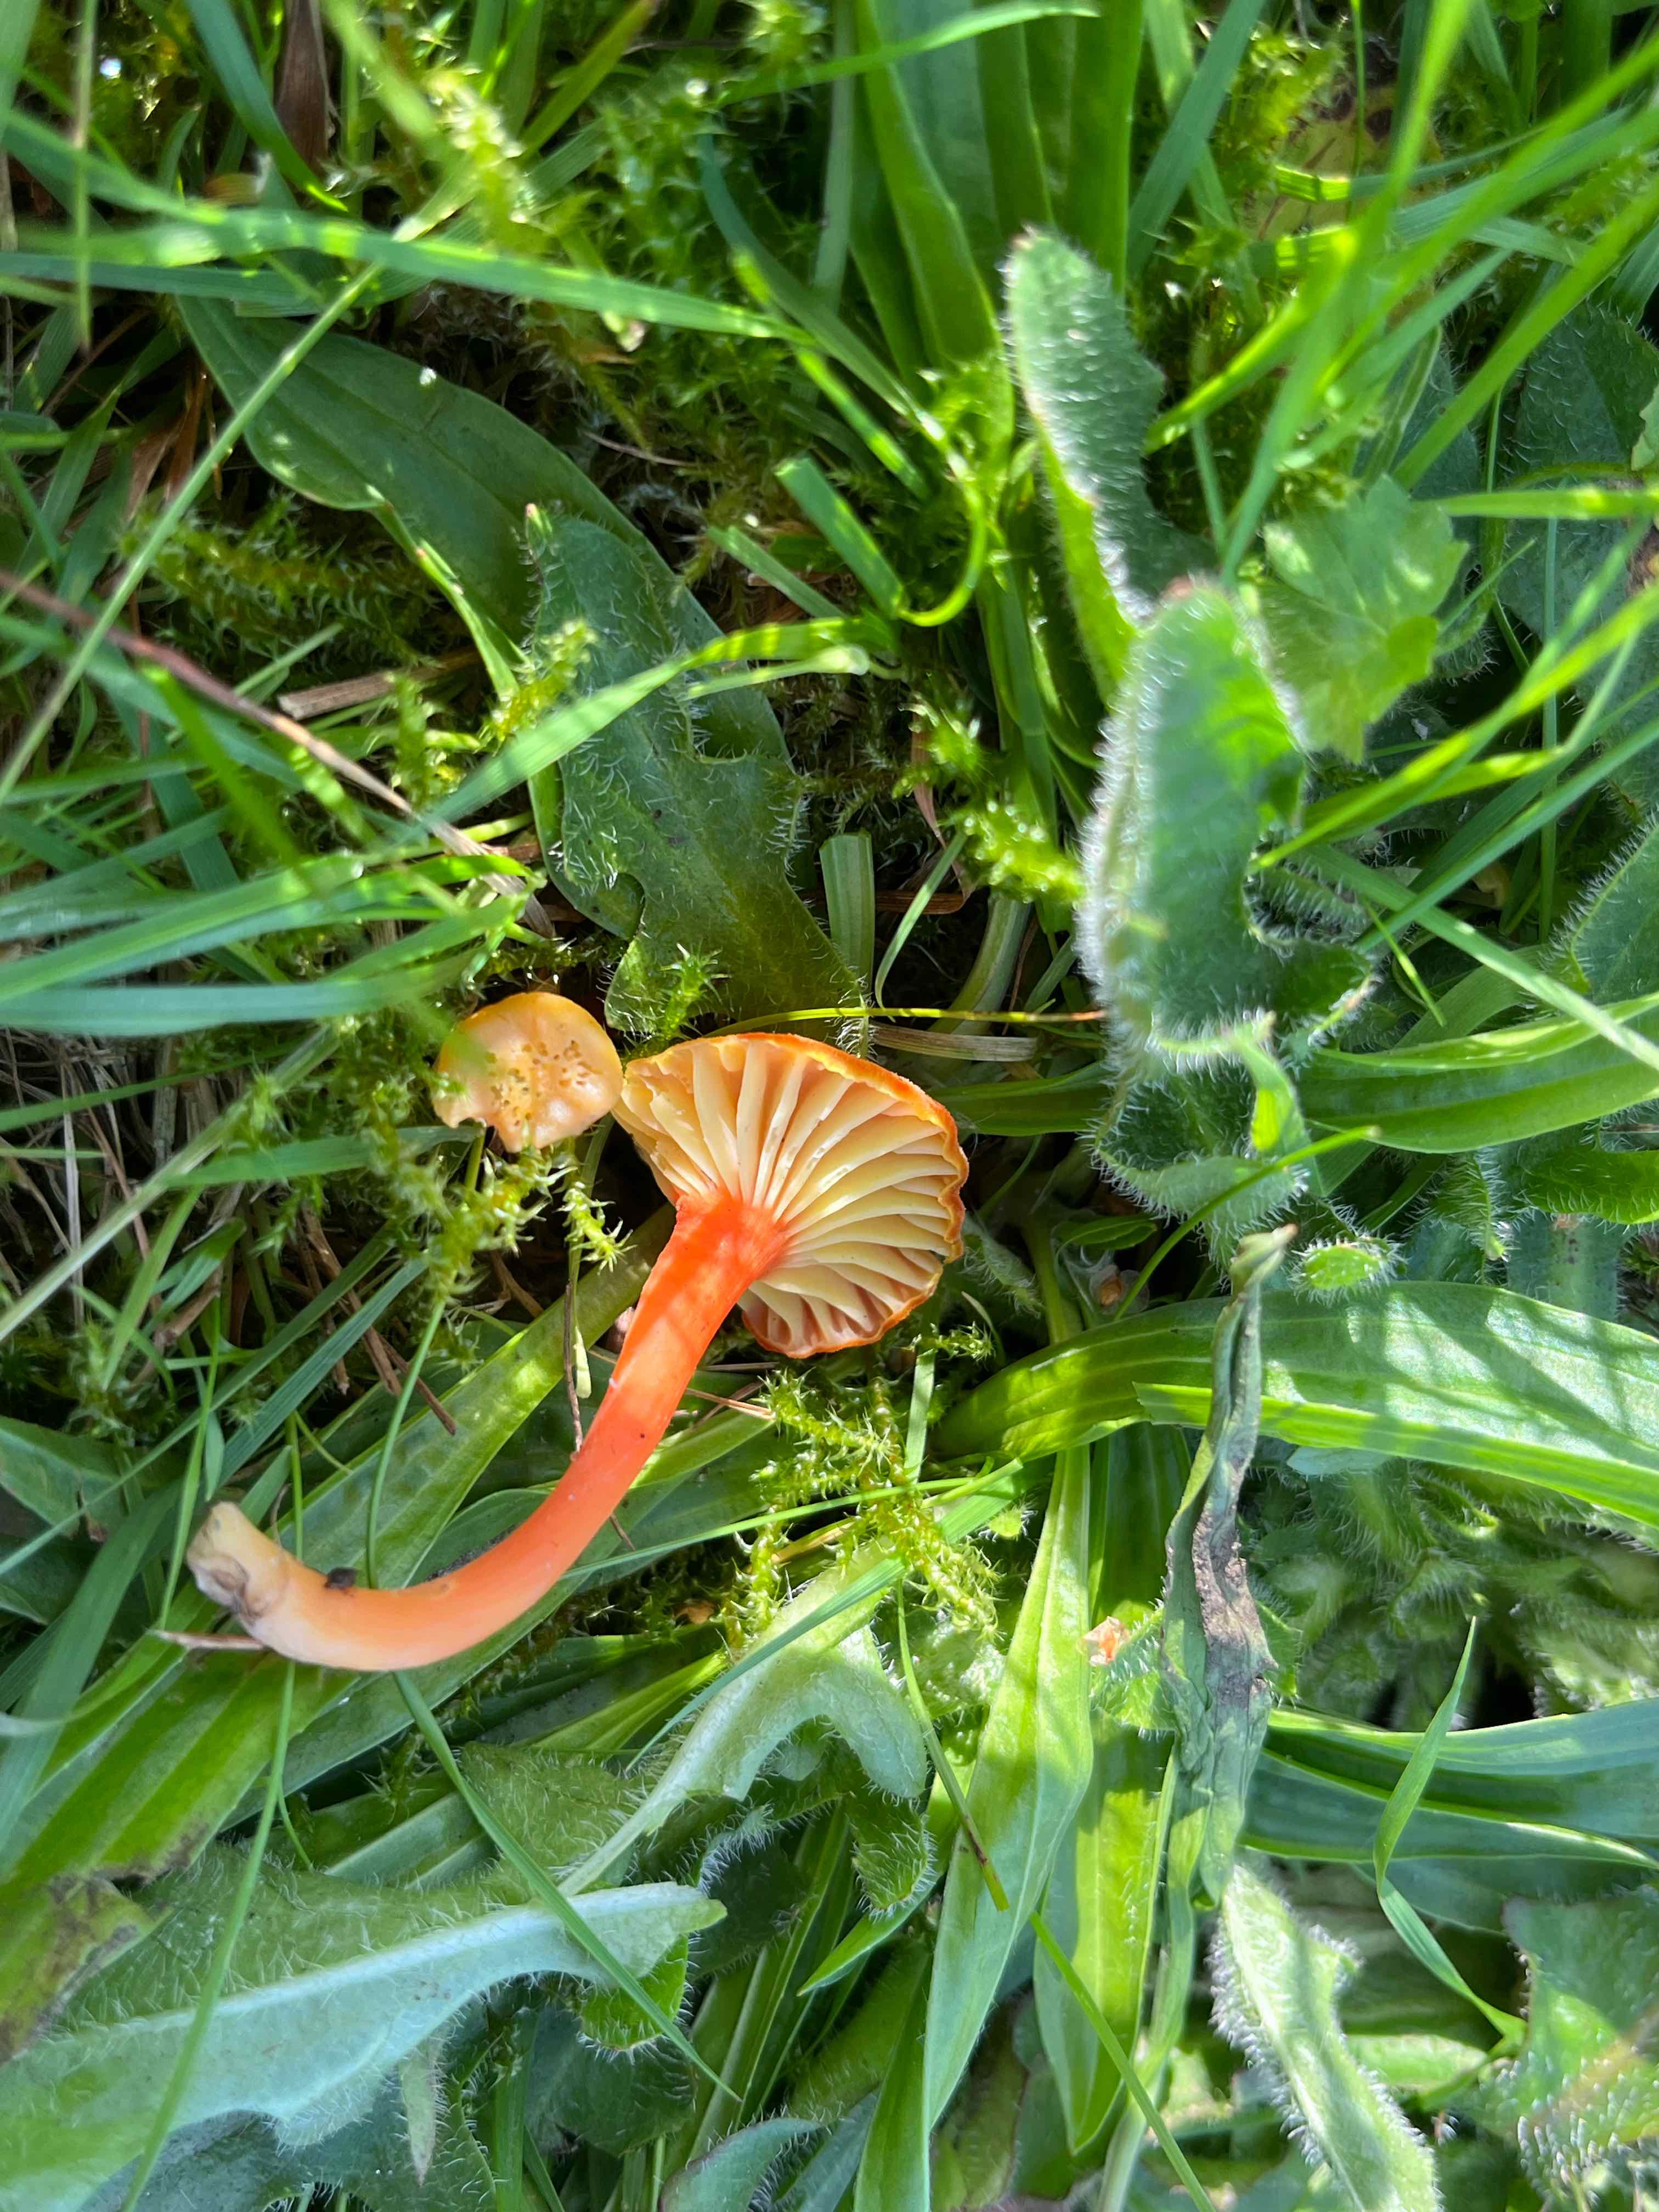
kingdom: Fungi
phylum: Basidiomycota
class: Agaricomycetes
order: Agaricales
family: Hygrophoraceae
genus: Hygrocybe
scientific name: Hygrocybe cantharellus
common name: kantarel-vokshat
